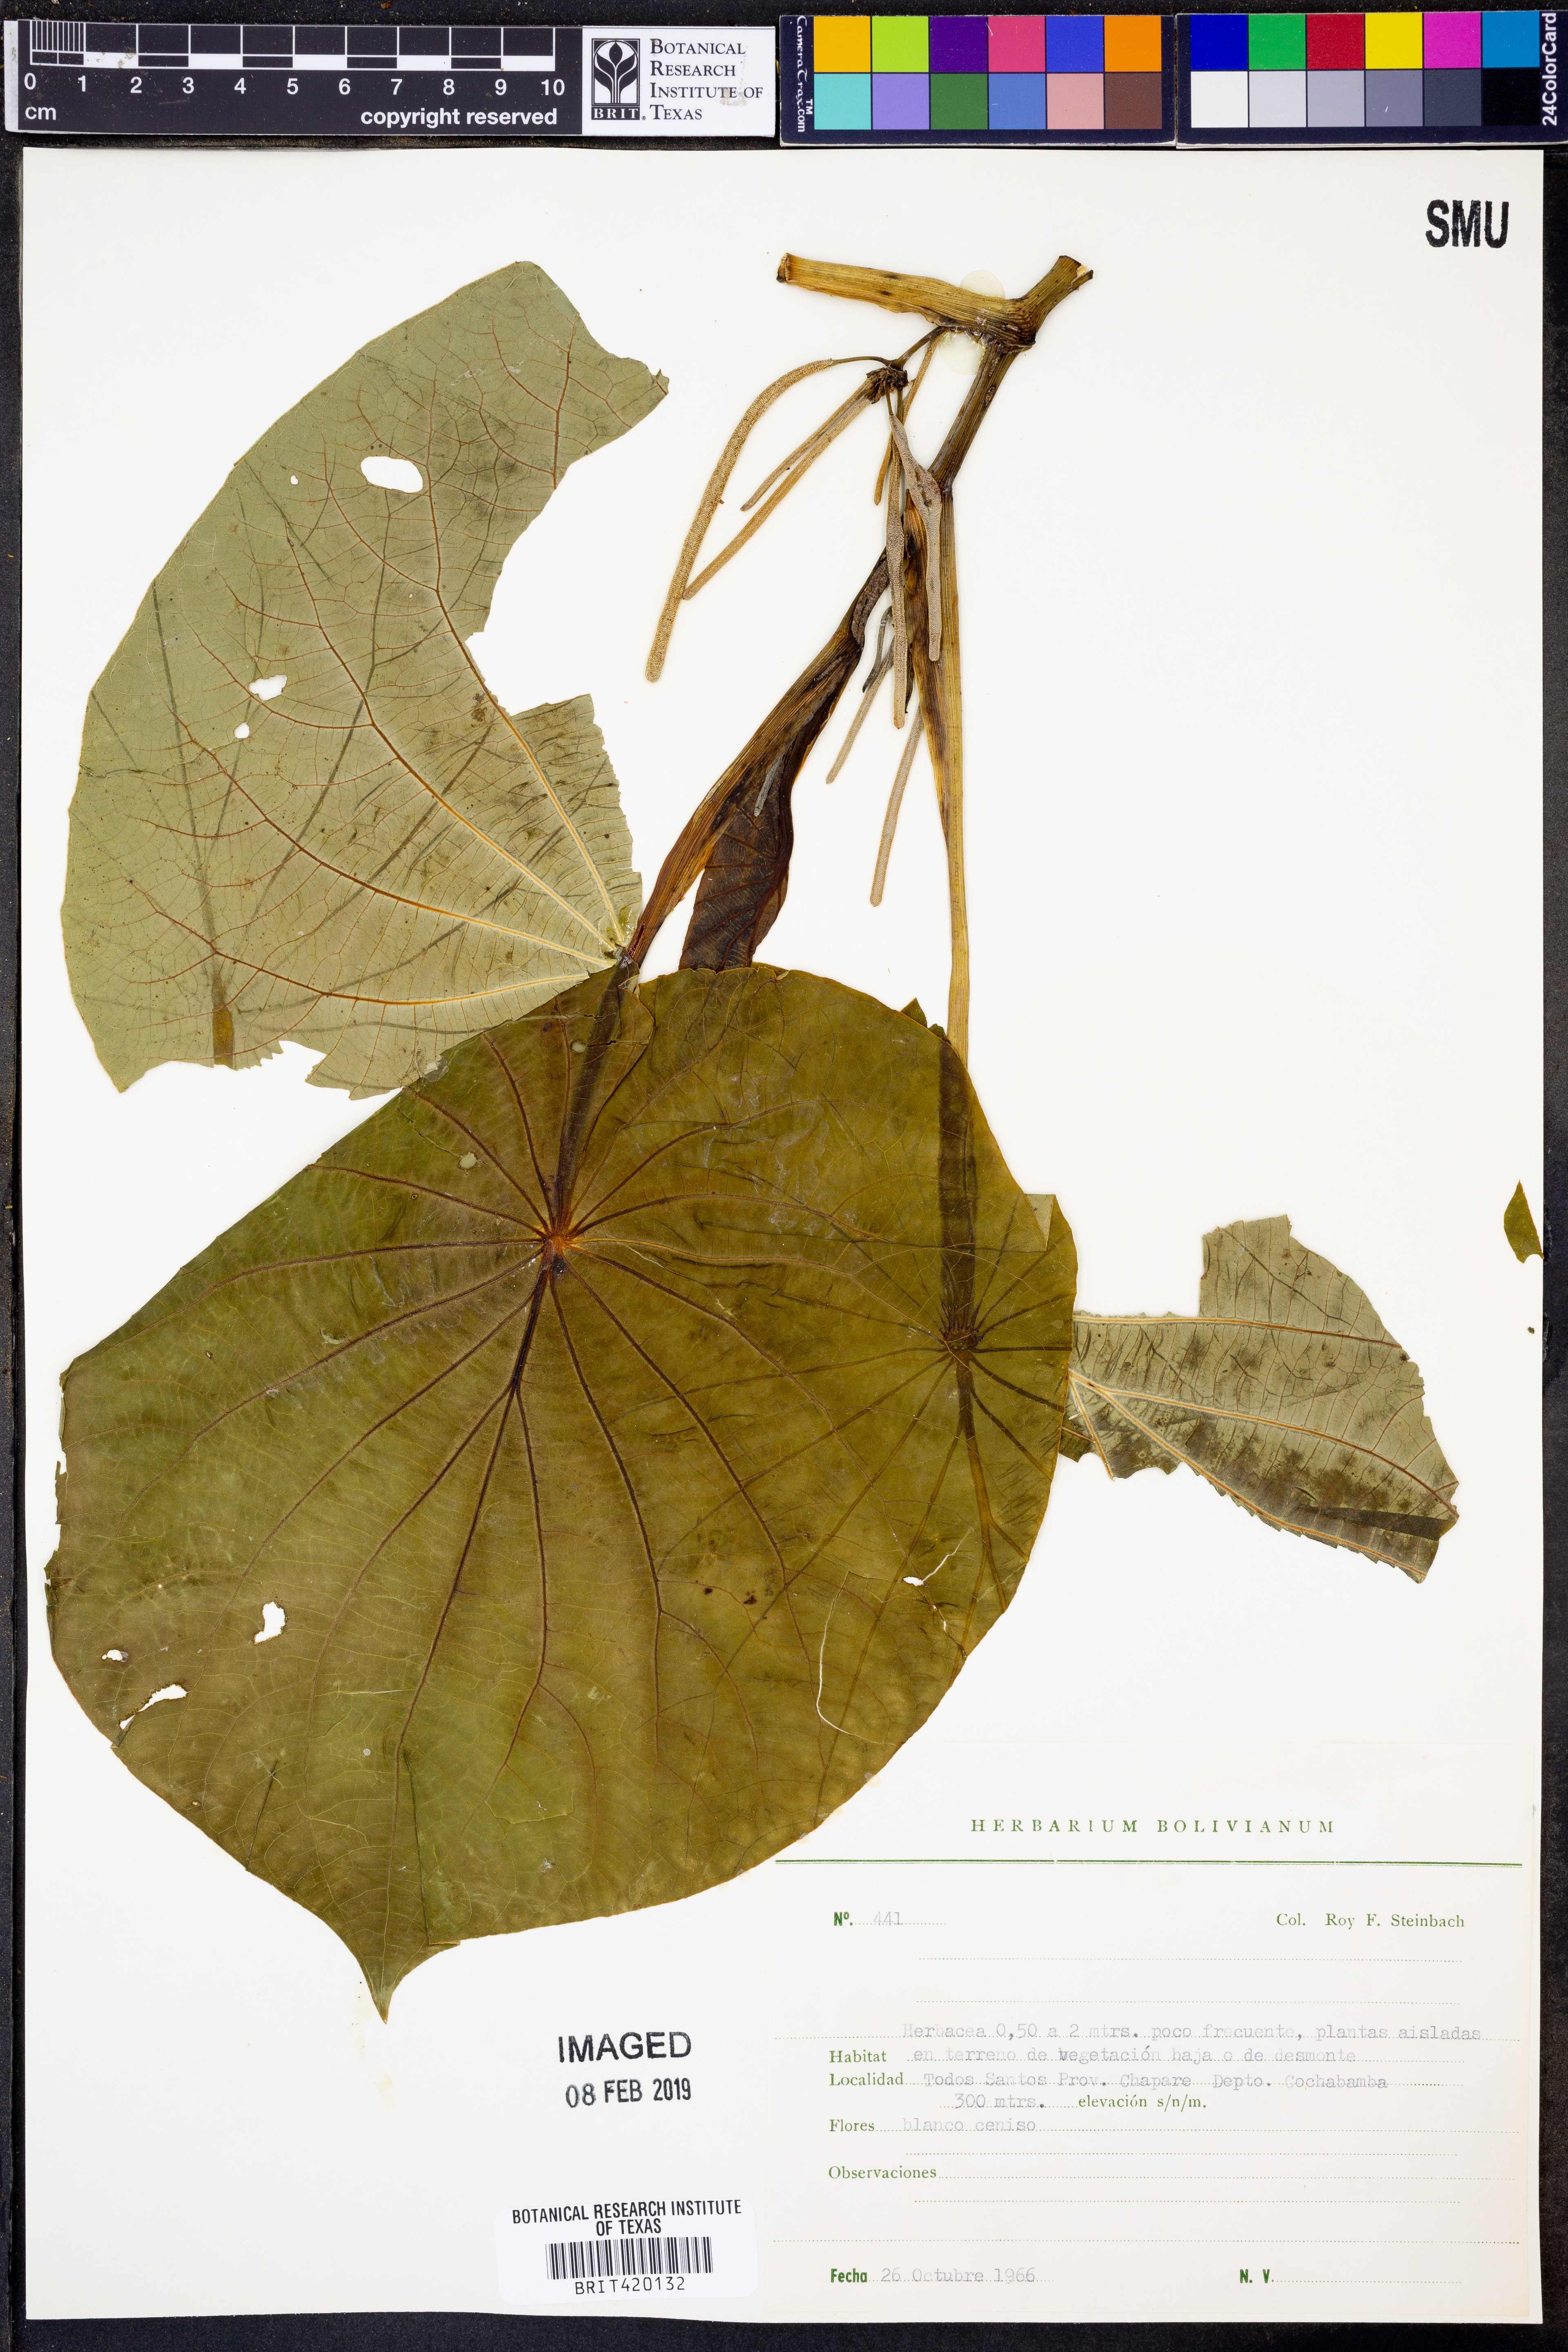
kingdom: Plantae
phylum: Tracheophyta
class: Magnoliopsida
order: Piperales
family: Piperaceae
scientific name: Piperaceae
